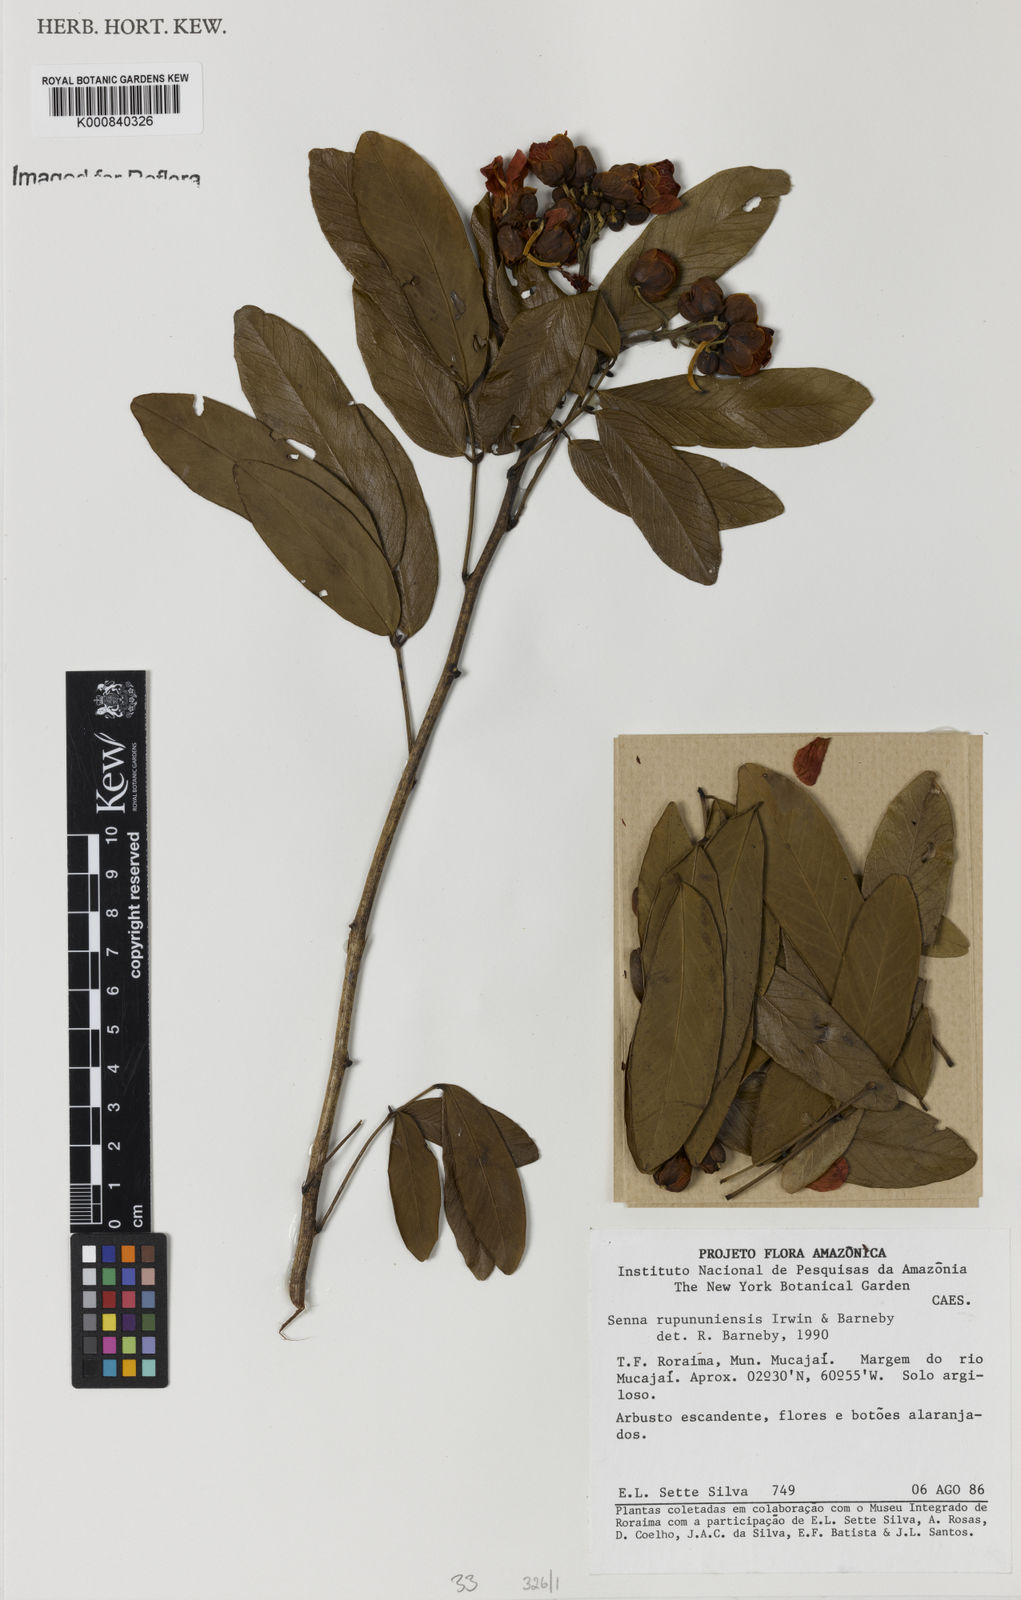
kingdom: Plantae
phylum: Tracheophyta
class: Magnoliopsida
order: Fabales
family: Fabaceae
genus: Senna
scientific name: Senna rupununiensis
